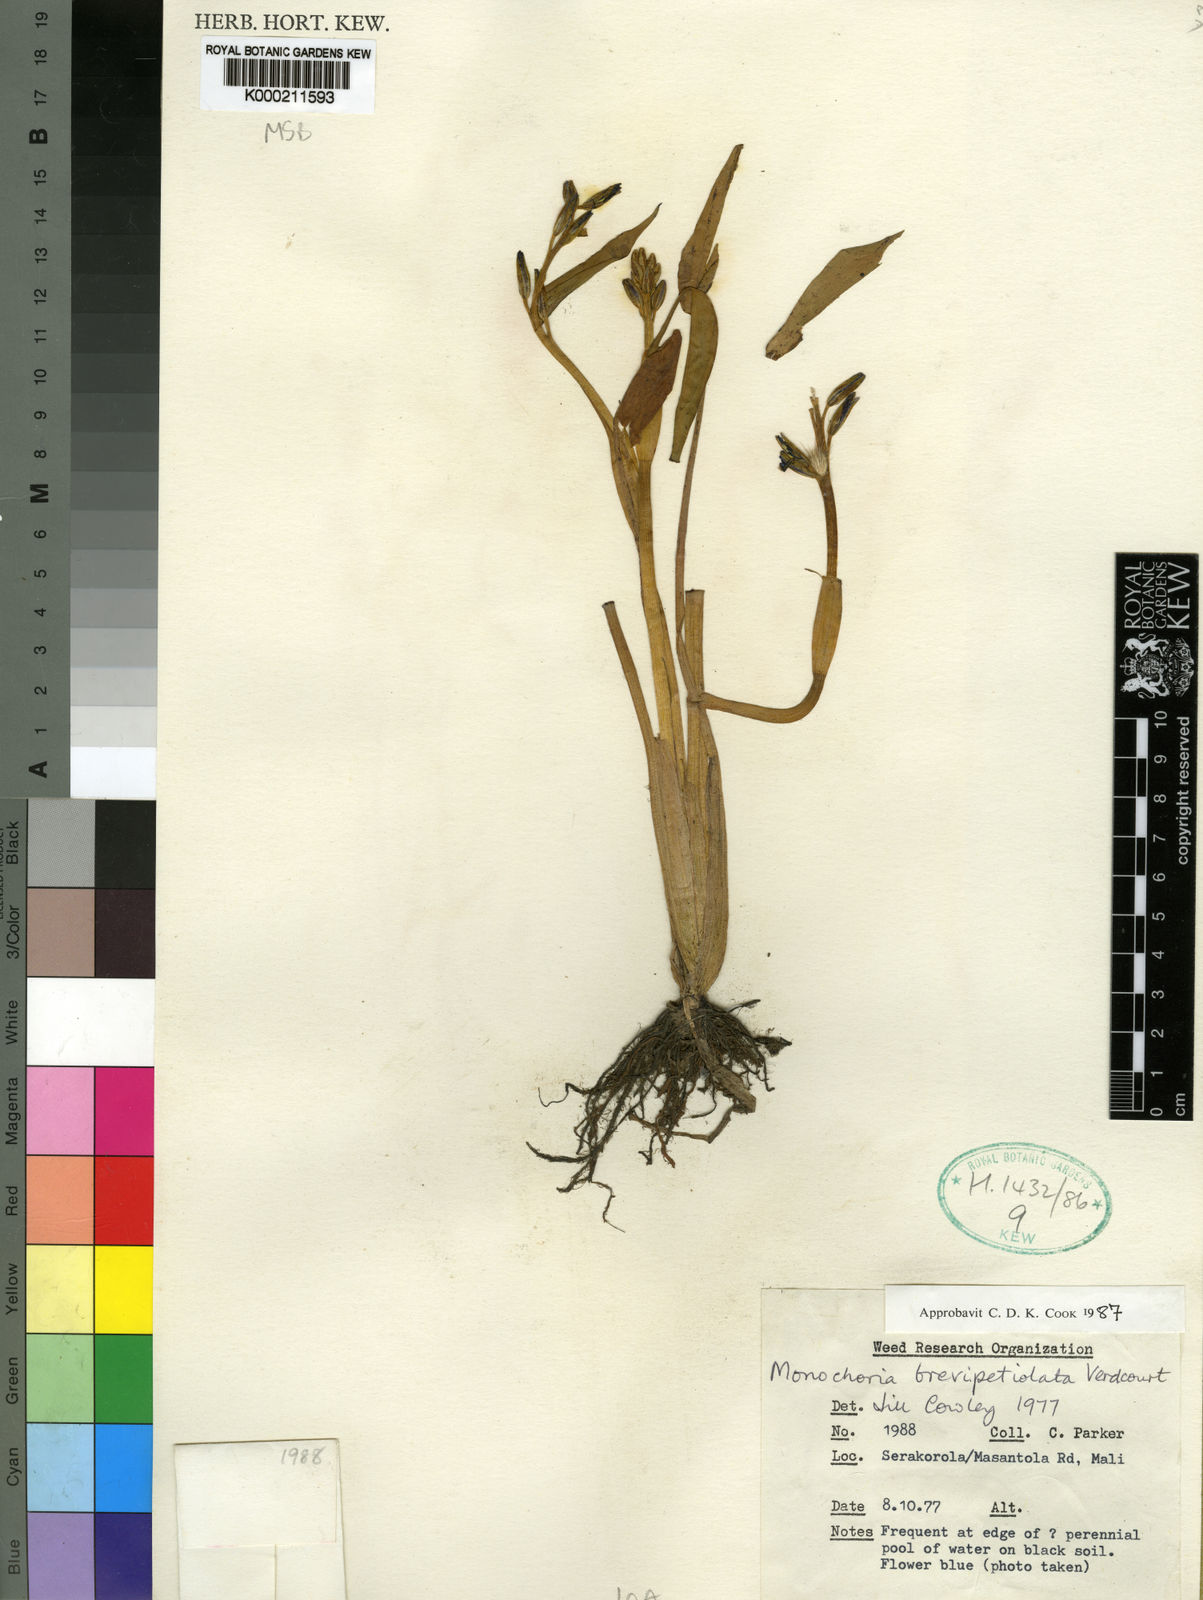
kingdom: Plantae
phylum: Tracheophyta
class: Liliopsida
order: Commelinales
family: Pontederiaceae
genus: Pontederia
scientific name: Pontederia brevipetiolata
